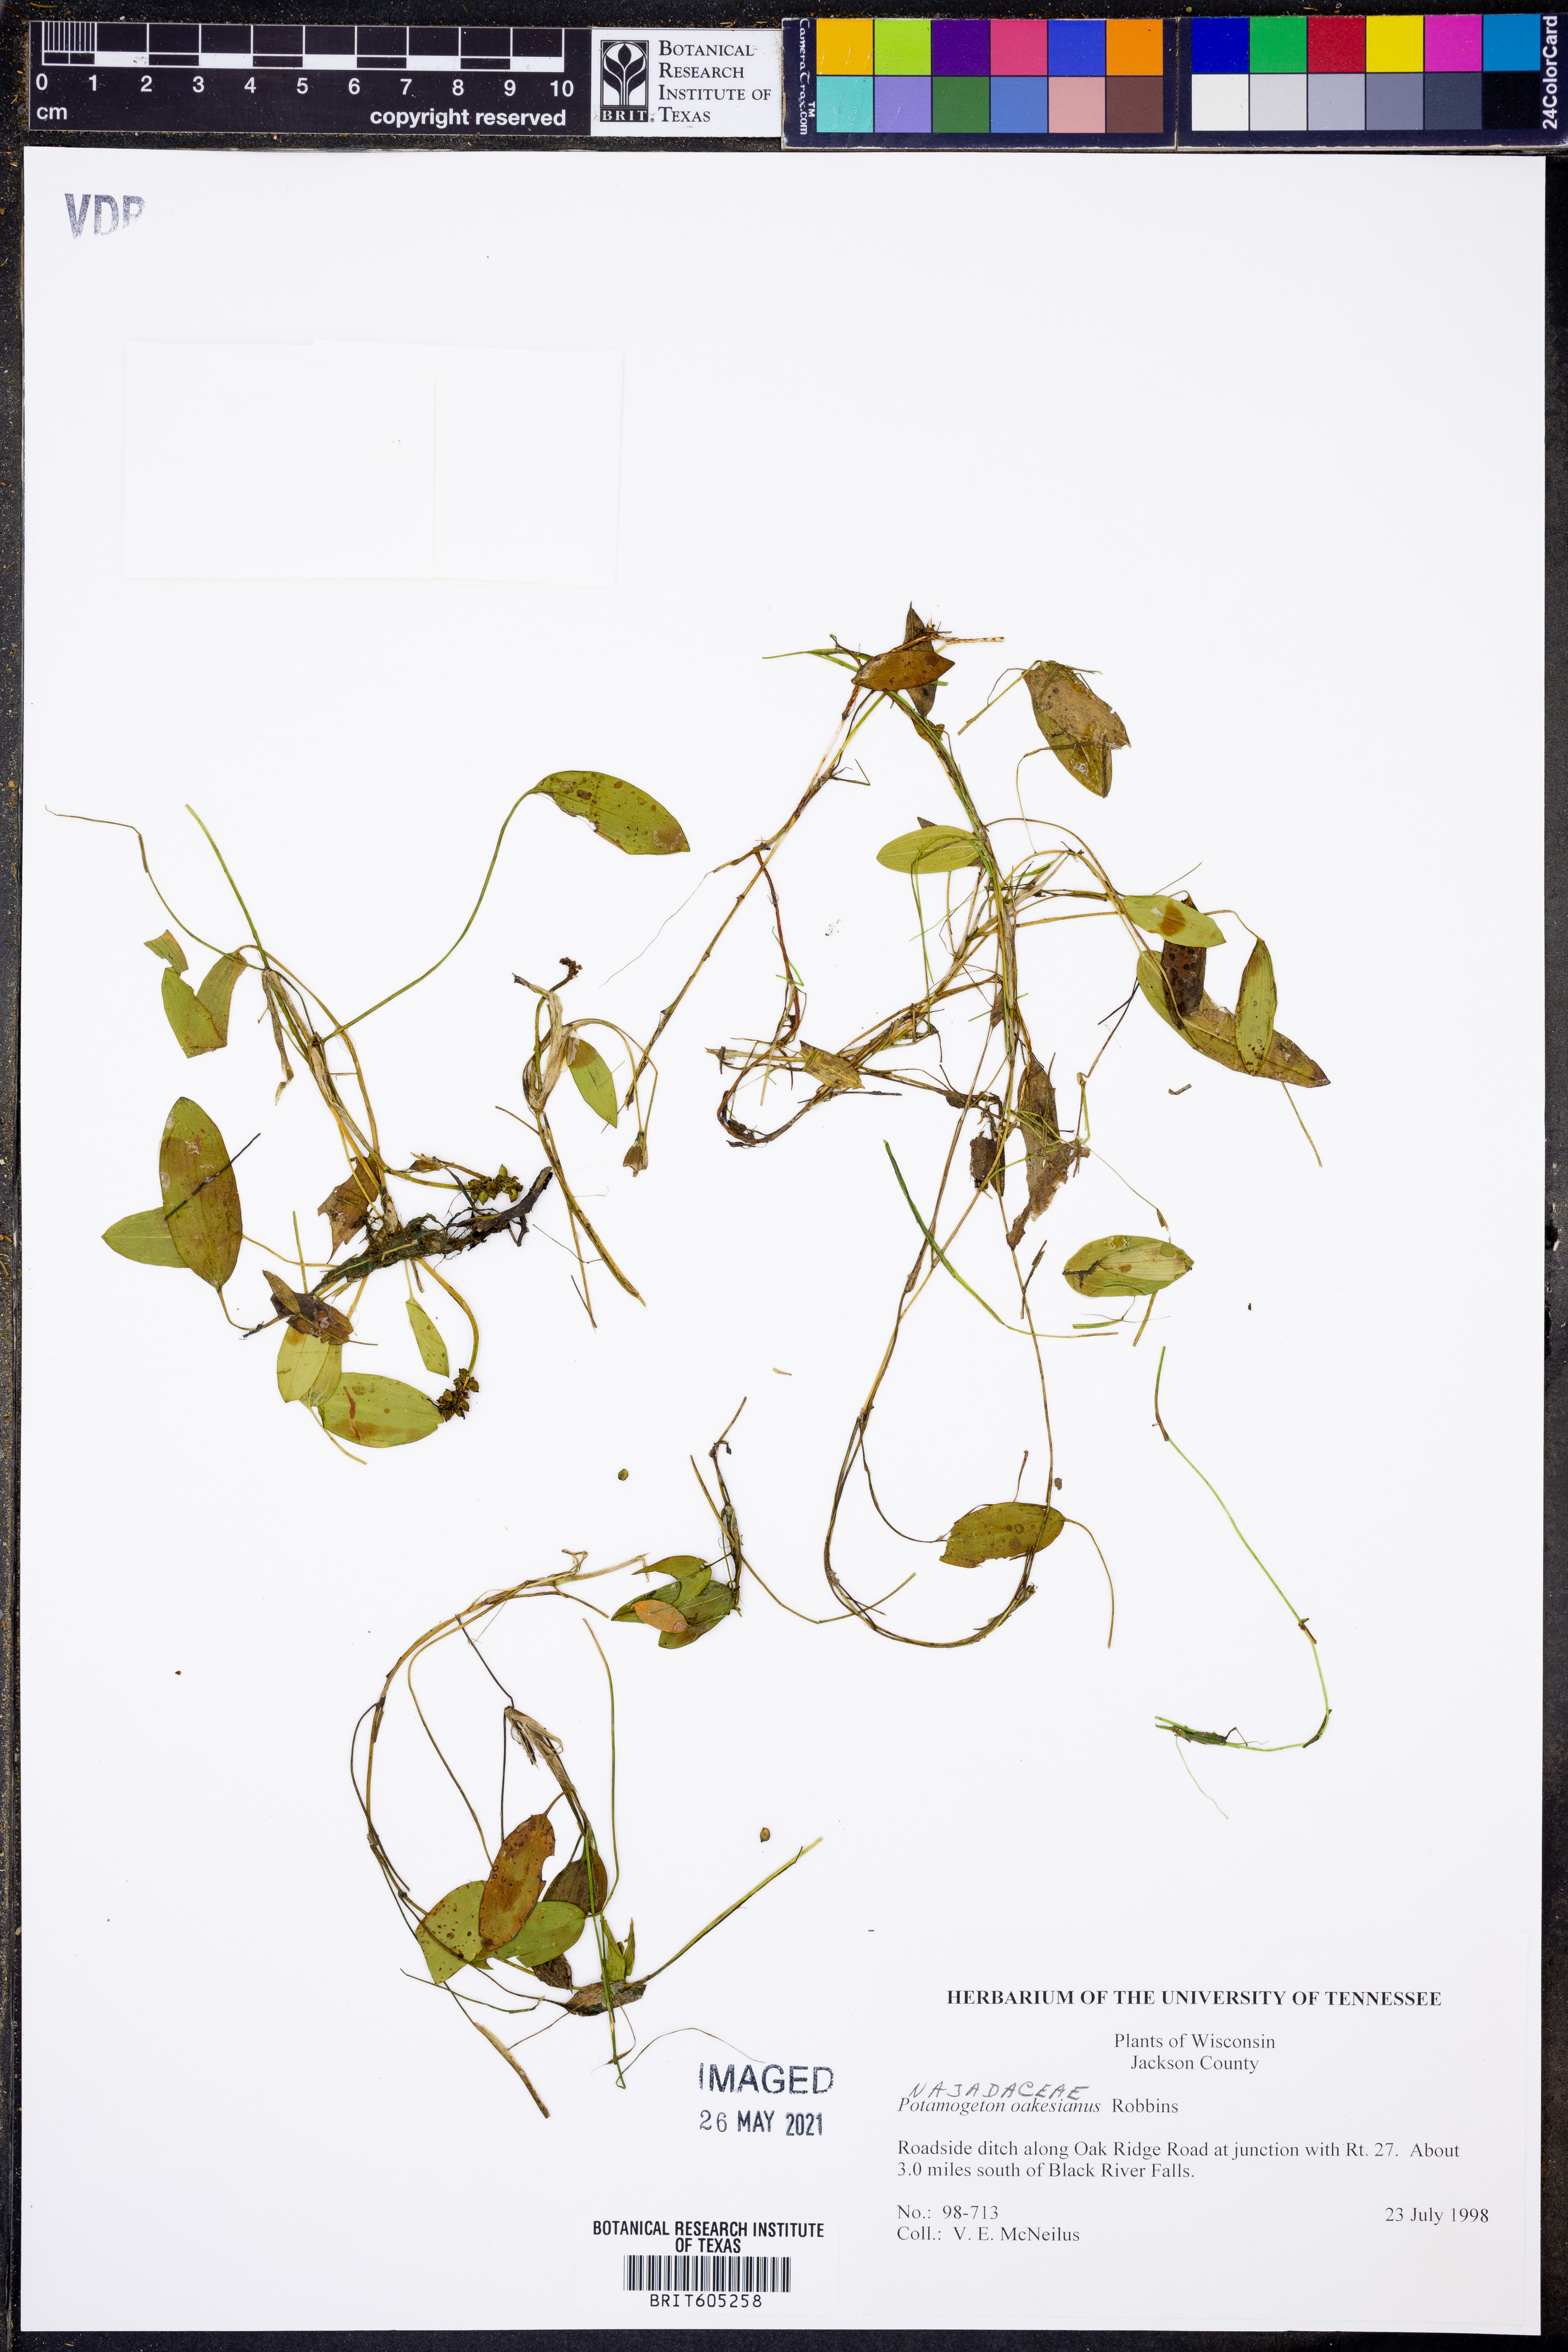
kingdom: Plantae
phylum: Tracheophyta
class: Liliopsida
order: Alismatales
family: Potamogetonaceae
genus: Potamogeton
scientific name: Potamogeton oakesianus
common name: Oakes' pondweed
